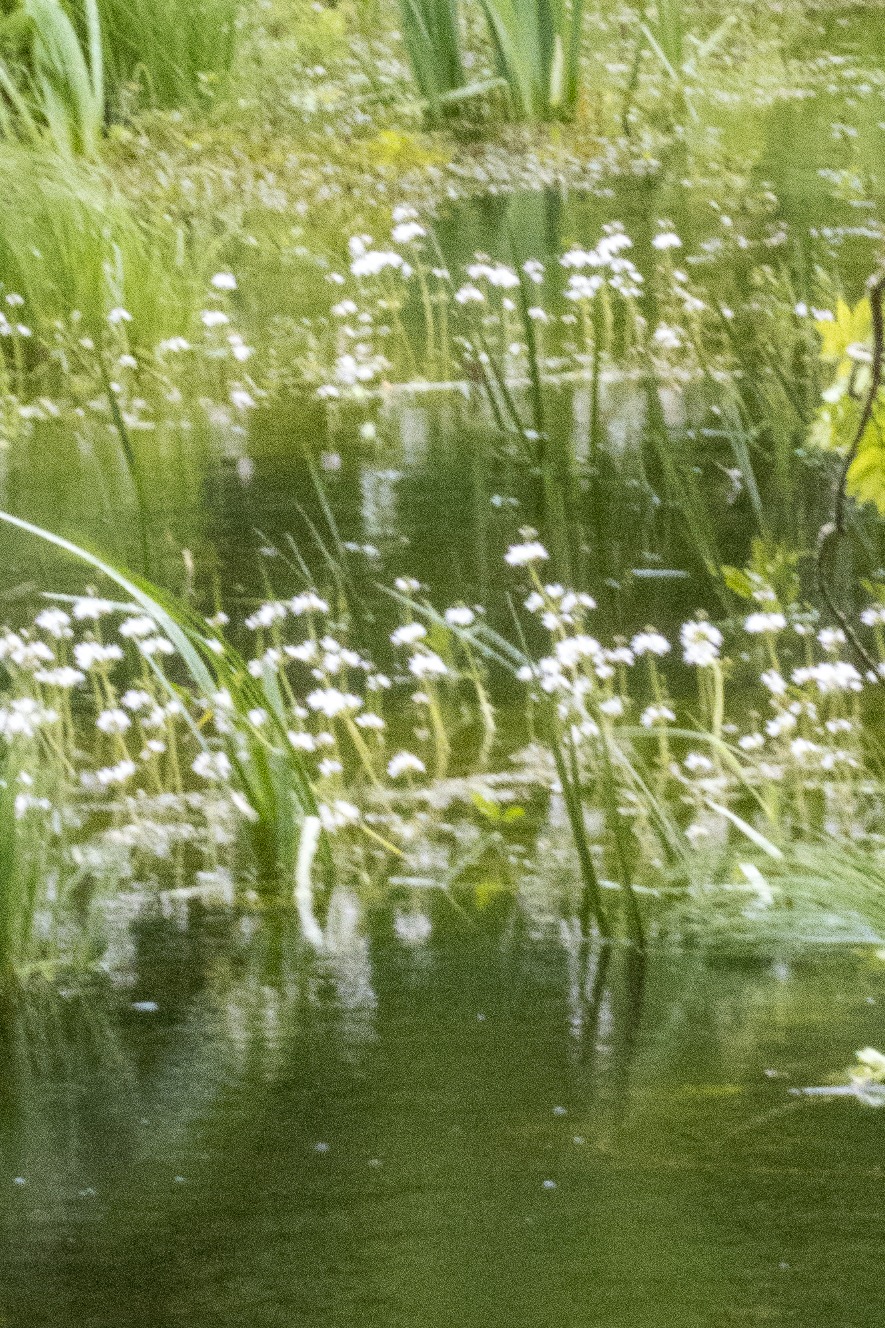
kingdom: Plantae
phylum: Tracheophyta
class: Magnoliopsida
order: Ericales
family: Primulaceae
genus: Hottonia
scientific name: Hottonia palustris
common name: Vandrøllike
